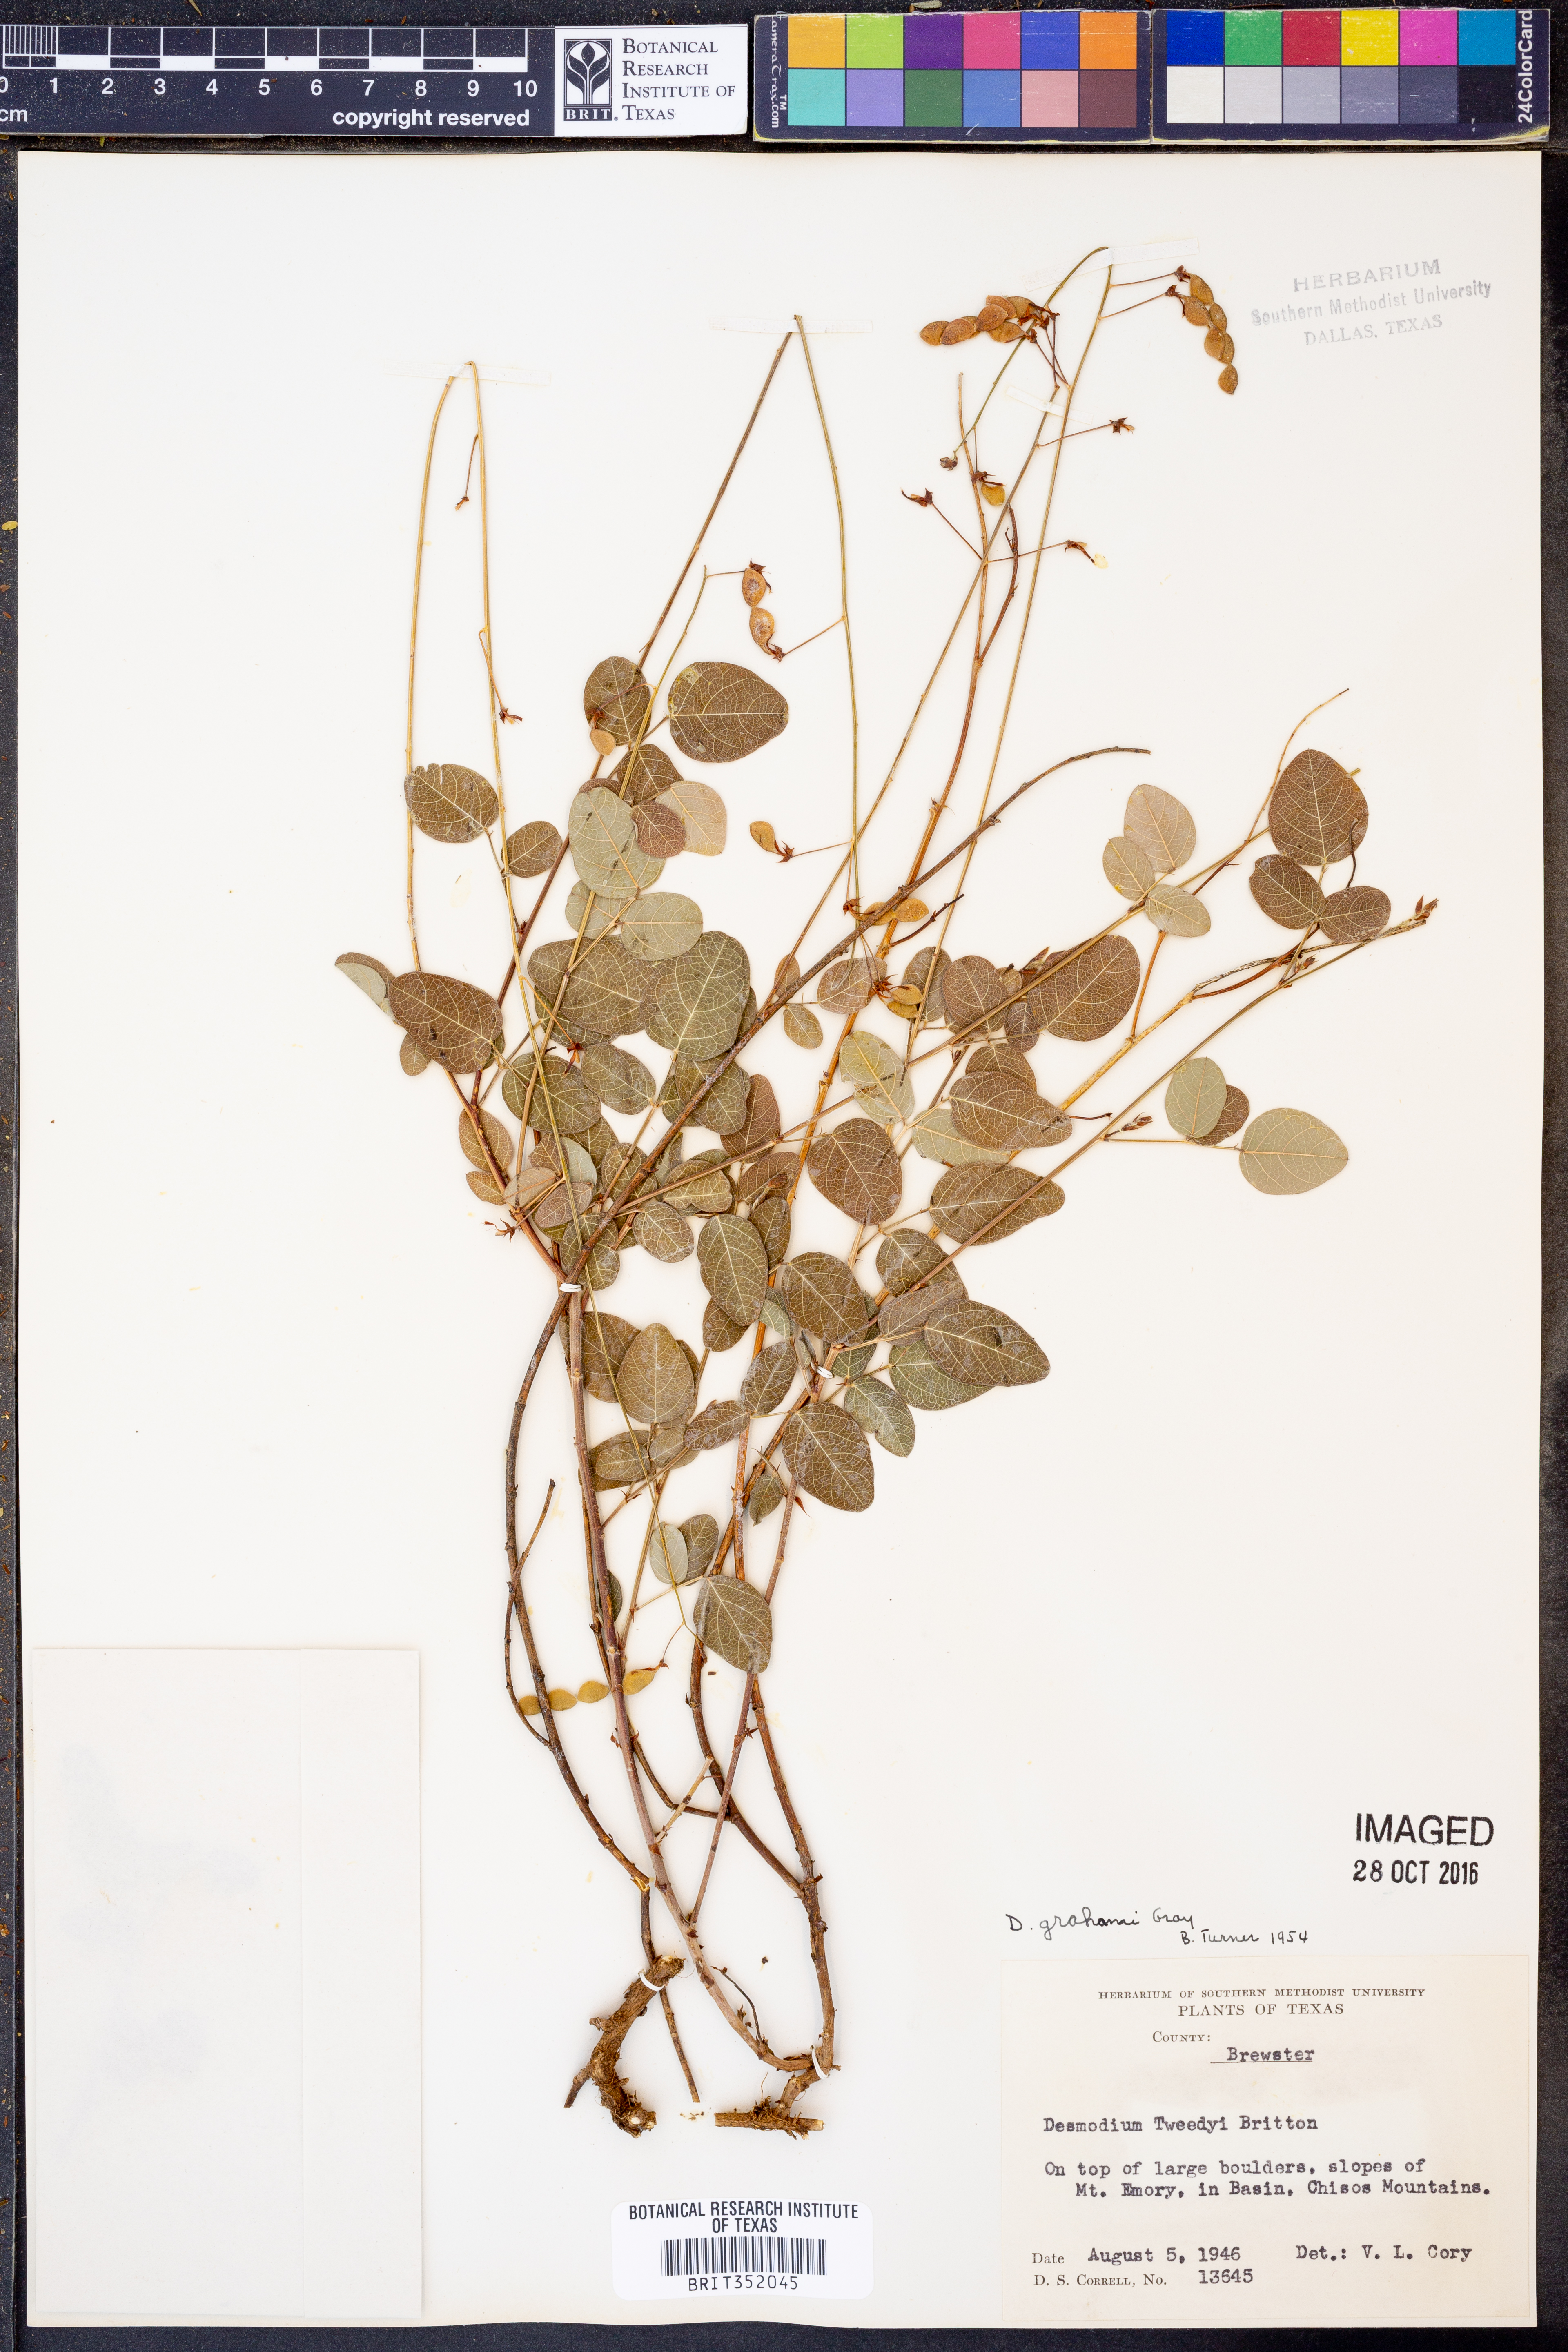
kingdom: Plantae
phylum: Tracheophyta
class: Magnoliopsida
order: Fabales
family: Fabaceae
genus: Desmodium
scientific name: Desmodium grahamii
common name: Graham's tick-trefoil
